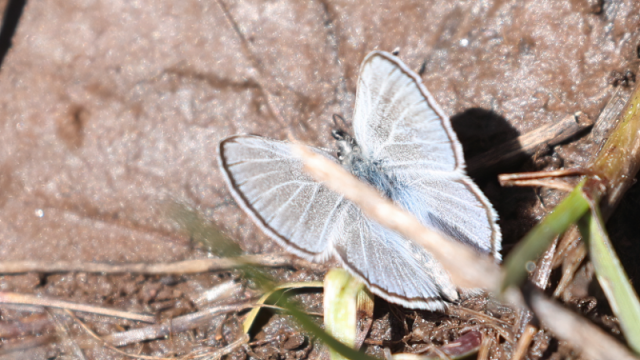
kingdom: Animalia
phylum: Arthropoda
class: Insecta
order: Lepidoptera
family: Lycaenidae
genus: Glaucopsyche
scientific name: Glaucopsyche lygdamus
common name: Silvery Blue
